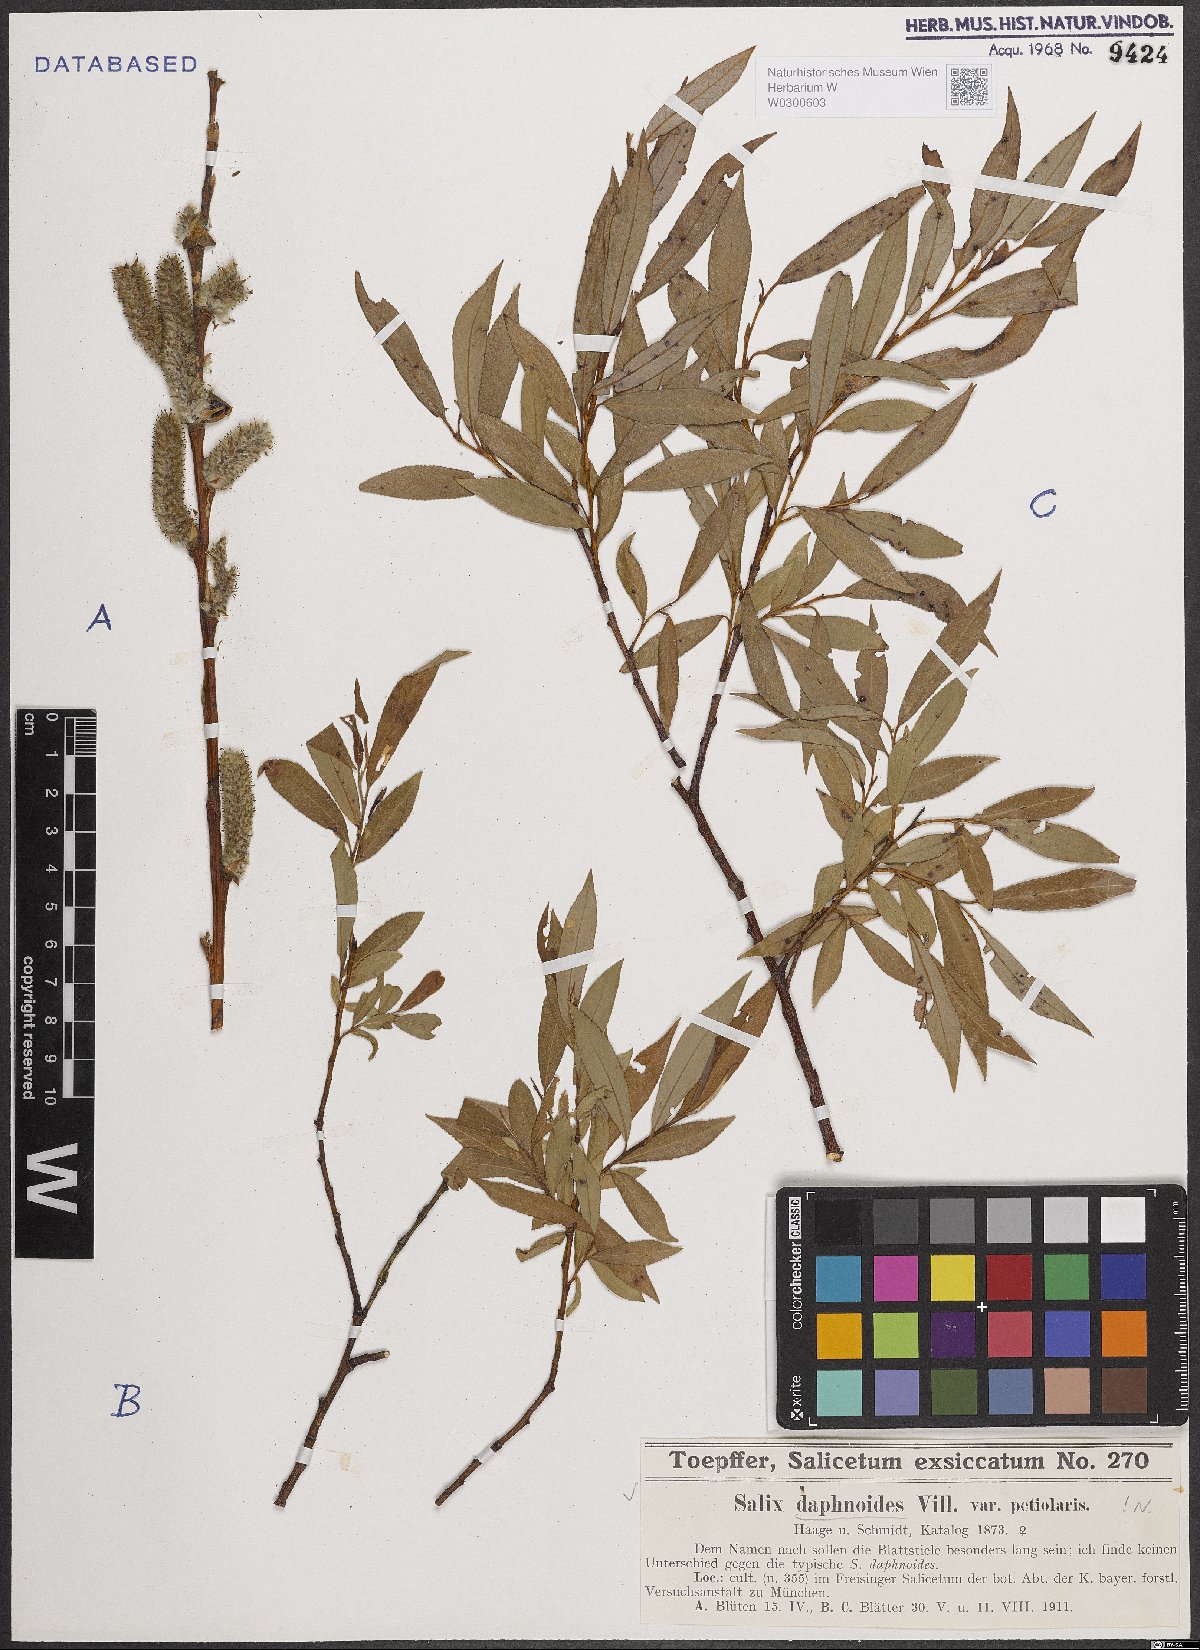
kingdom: Plantae
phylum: Tracheophyta
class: Magnoliopsida
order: Malpighiales
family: Salicaceae
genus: Salix
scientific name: Salix daphnoides
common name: European violet-willow
